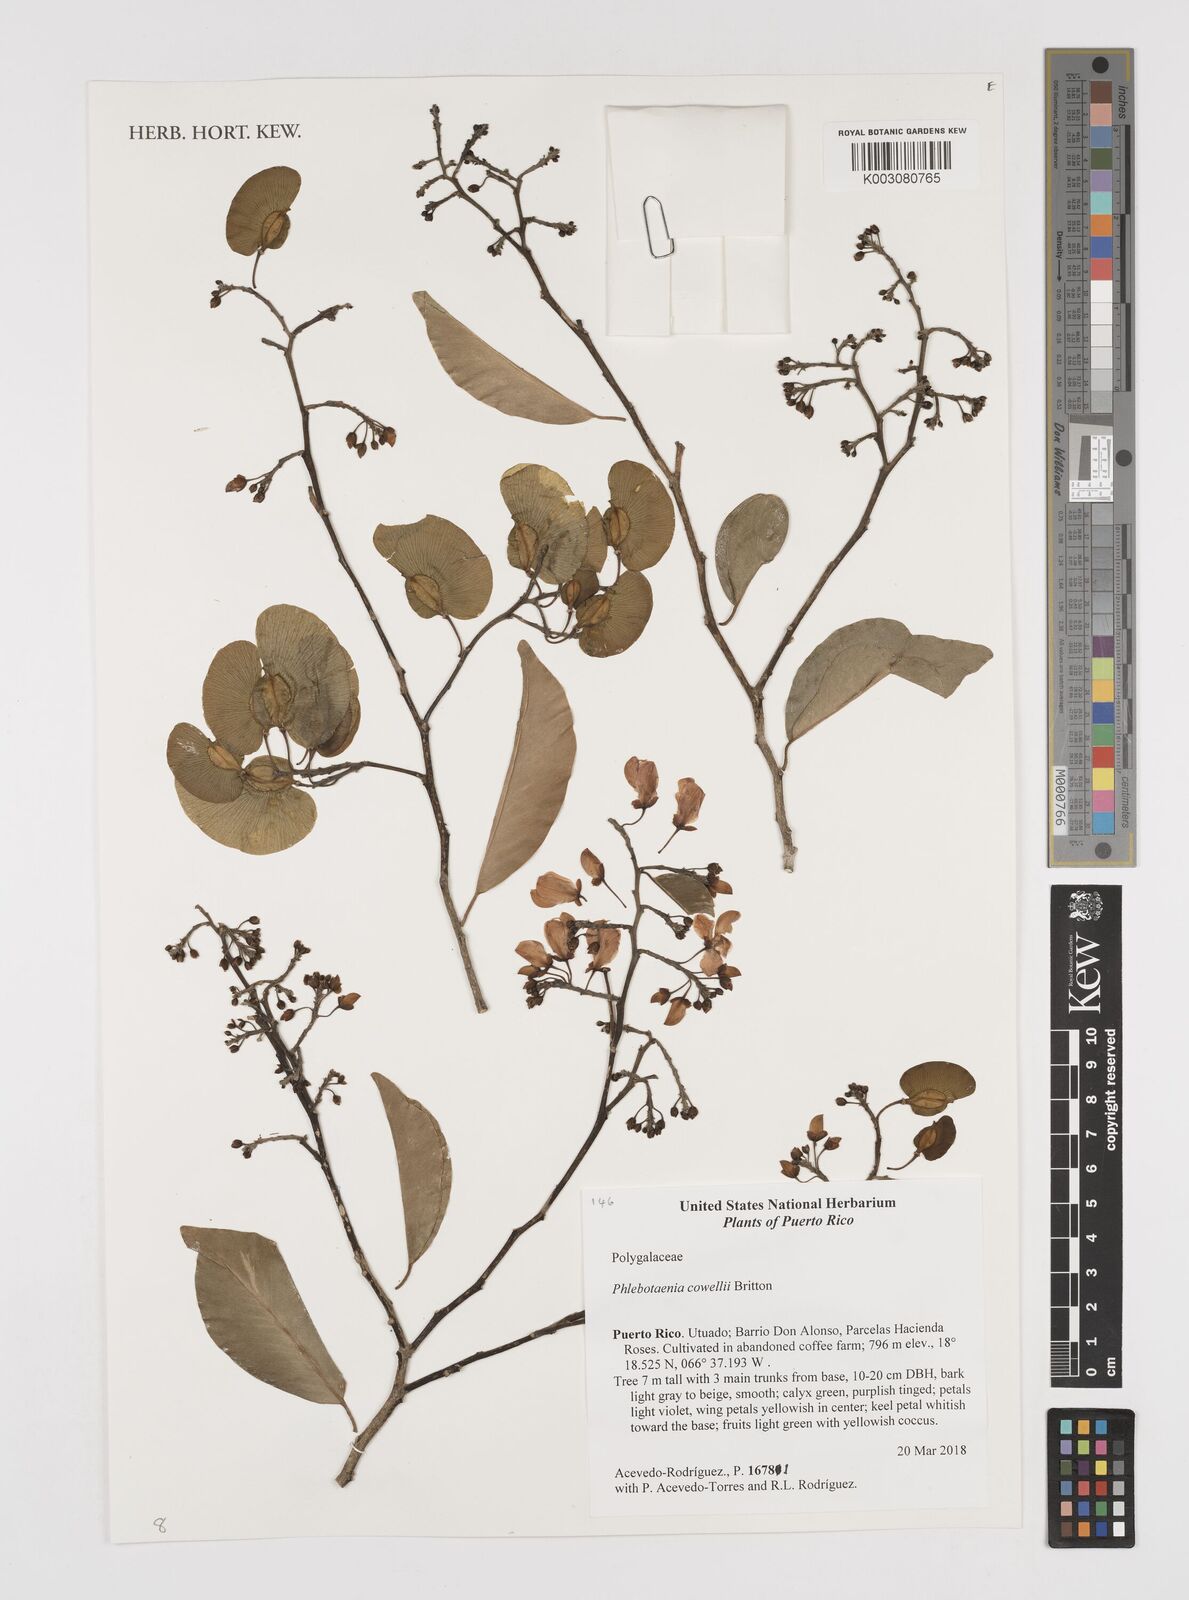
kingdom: Plantae
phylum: Tracheophyta
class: Magnoliopsida
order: Fabales
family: Polygalaceae
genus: Phlebotaenia
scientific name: Phlebotaenia cowellii
